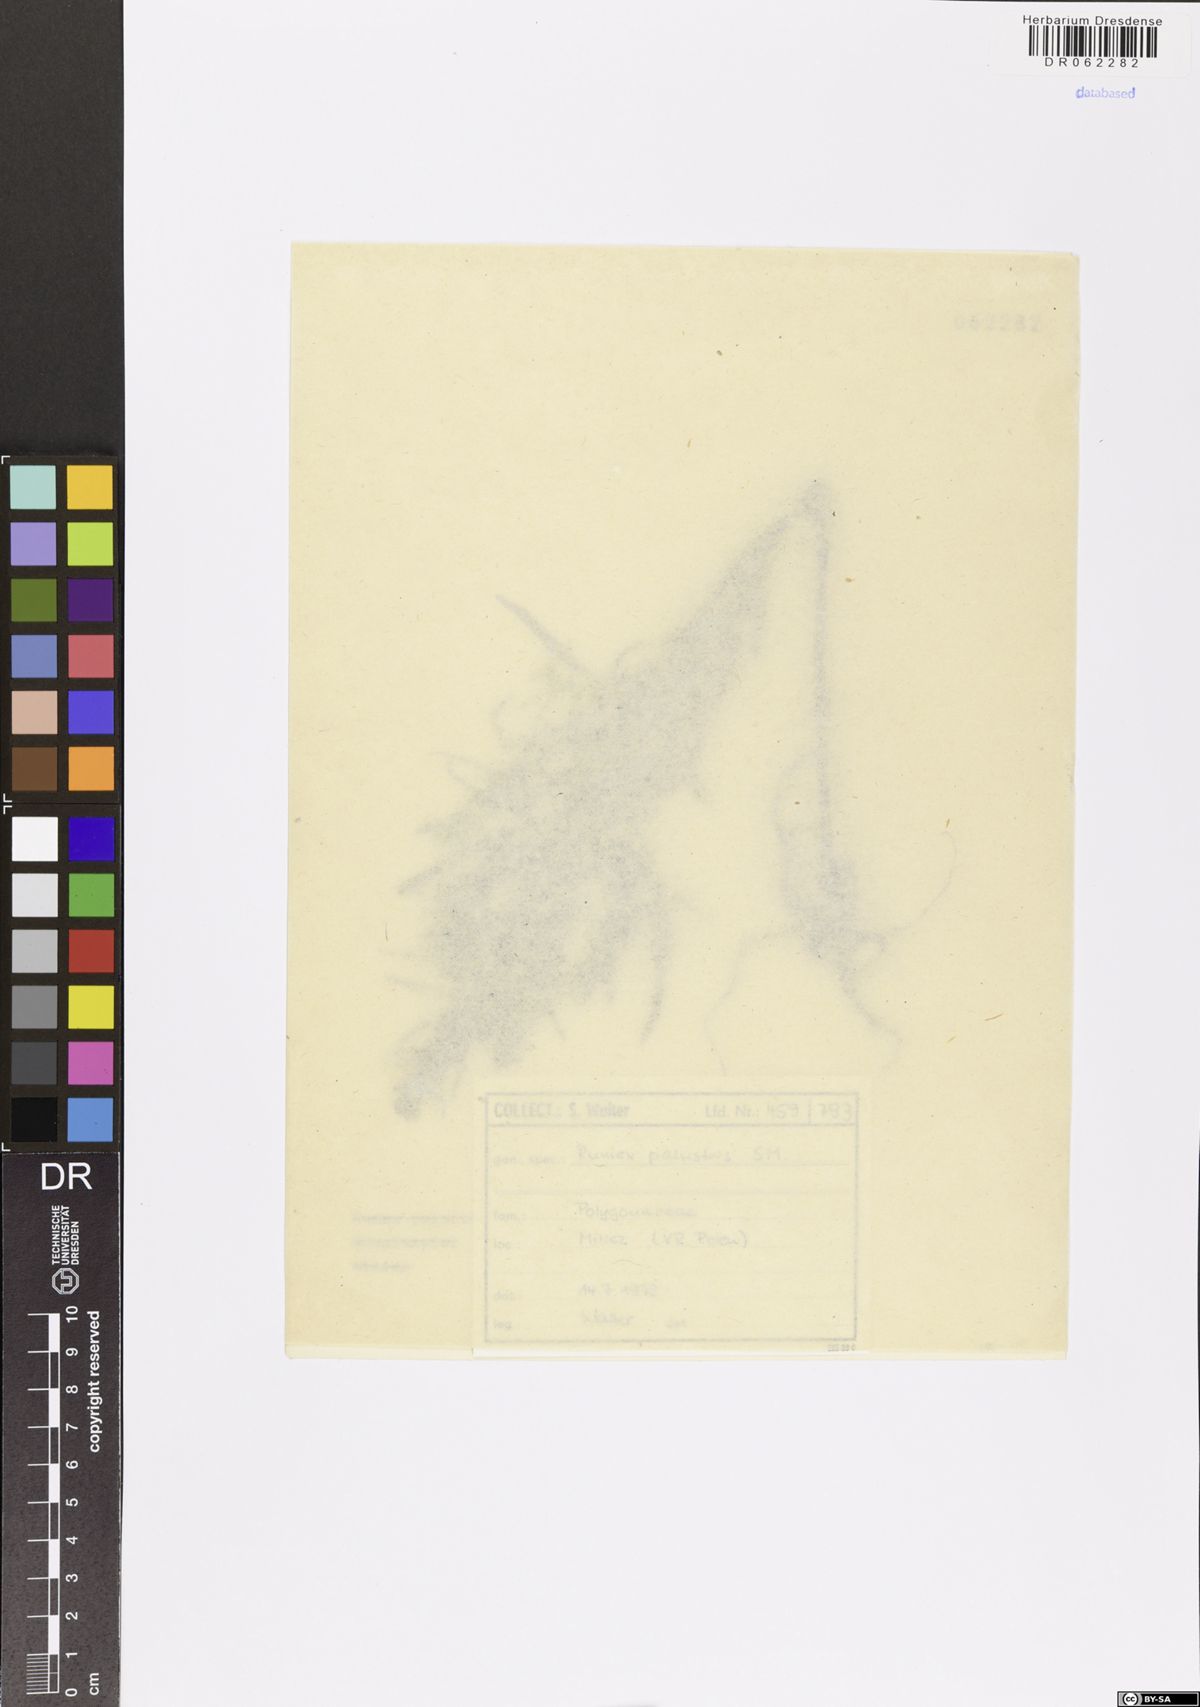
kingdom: Plantae
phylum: Tracheophyta
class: Magnoliopsida
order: Caryophyllales
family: Polygonaceae
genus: Rumex
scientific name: Rumex palustris
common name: Marsh dock
